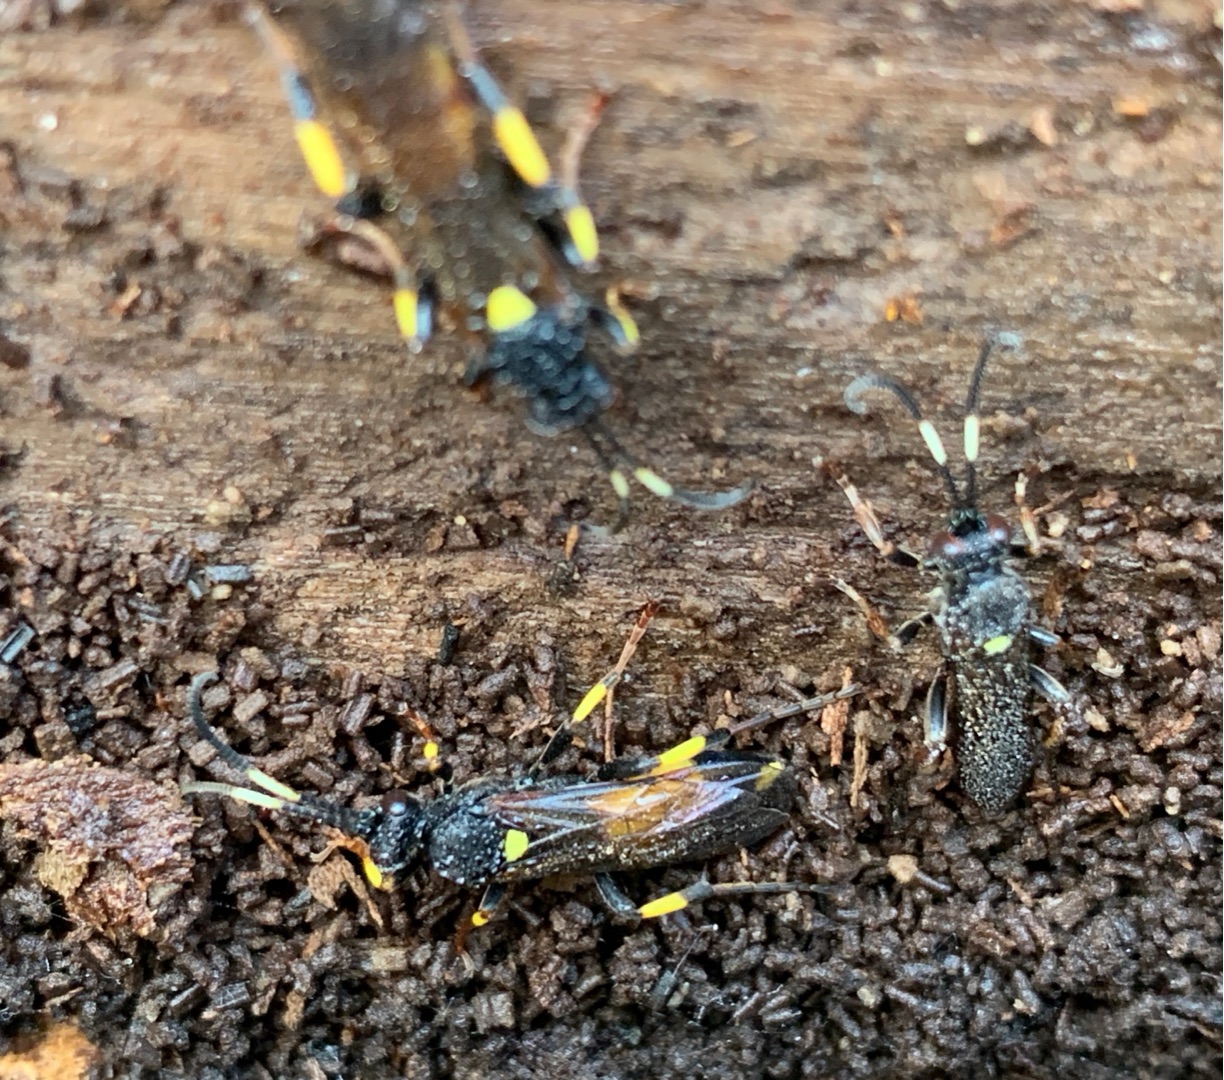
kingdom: Animalia
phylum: Arthropoda
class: Insecta
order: Hymenoptera
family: Ichneumonidae
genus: Ichneumon
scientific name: Ichneumon stramentor
